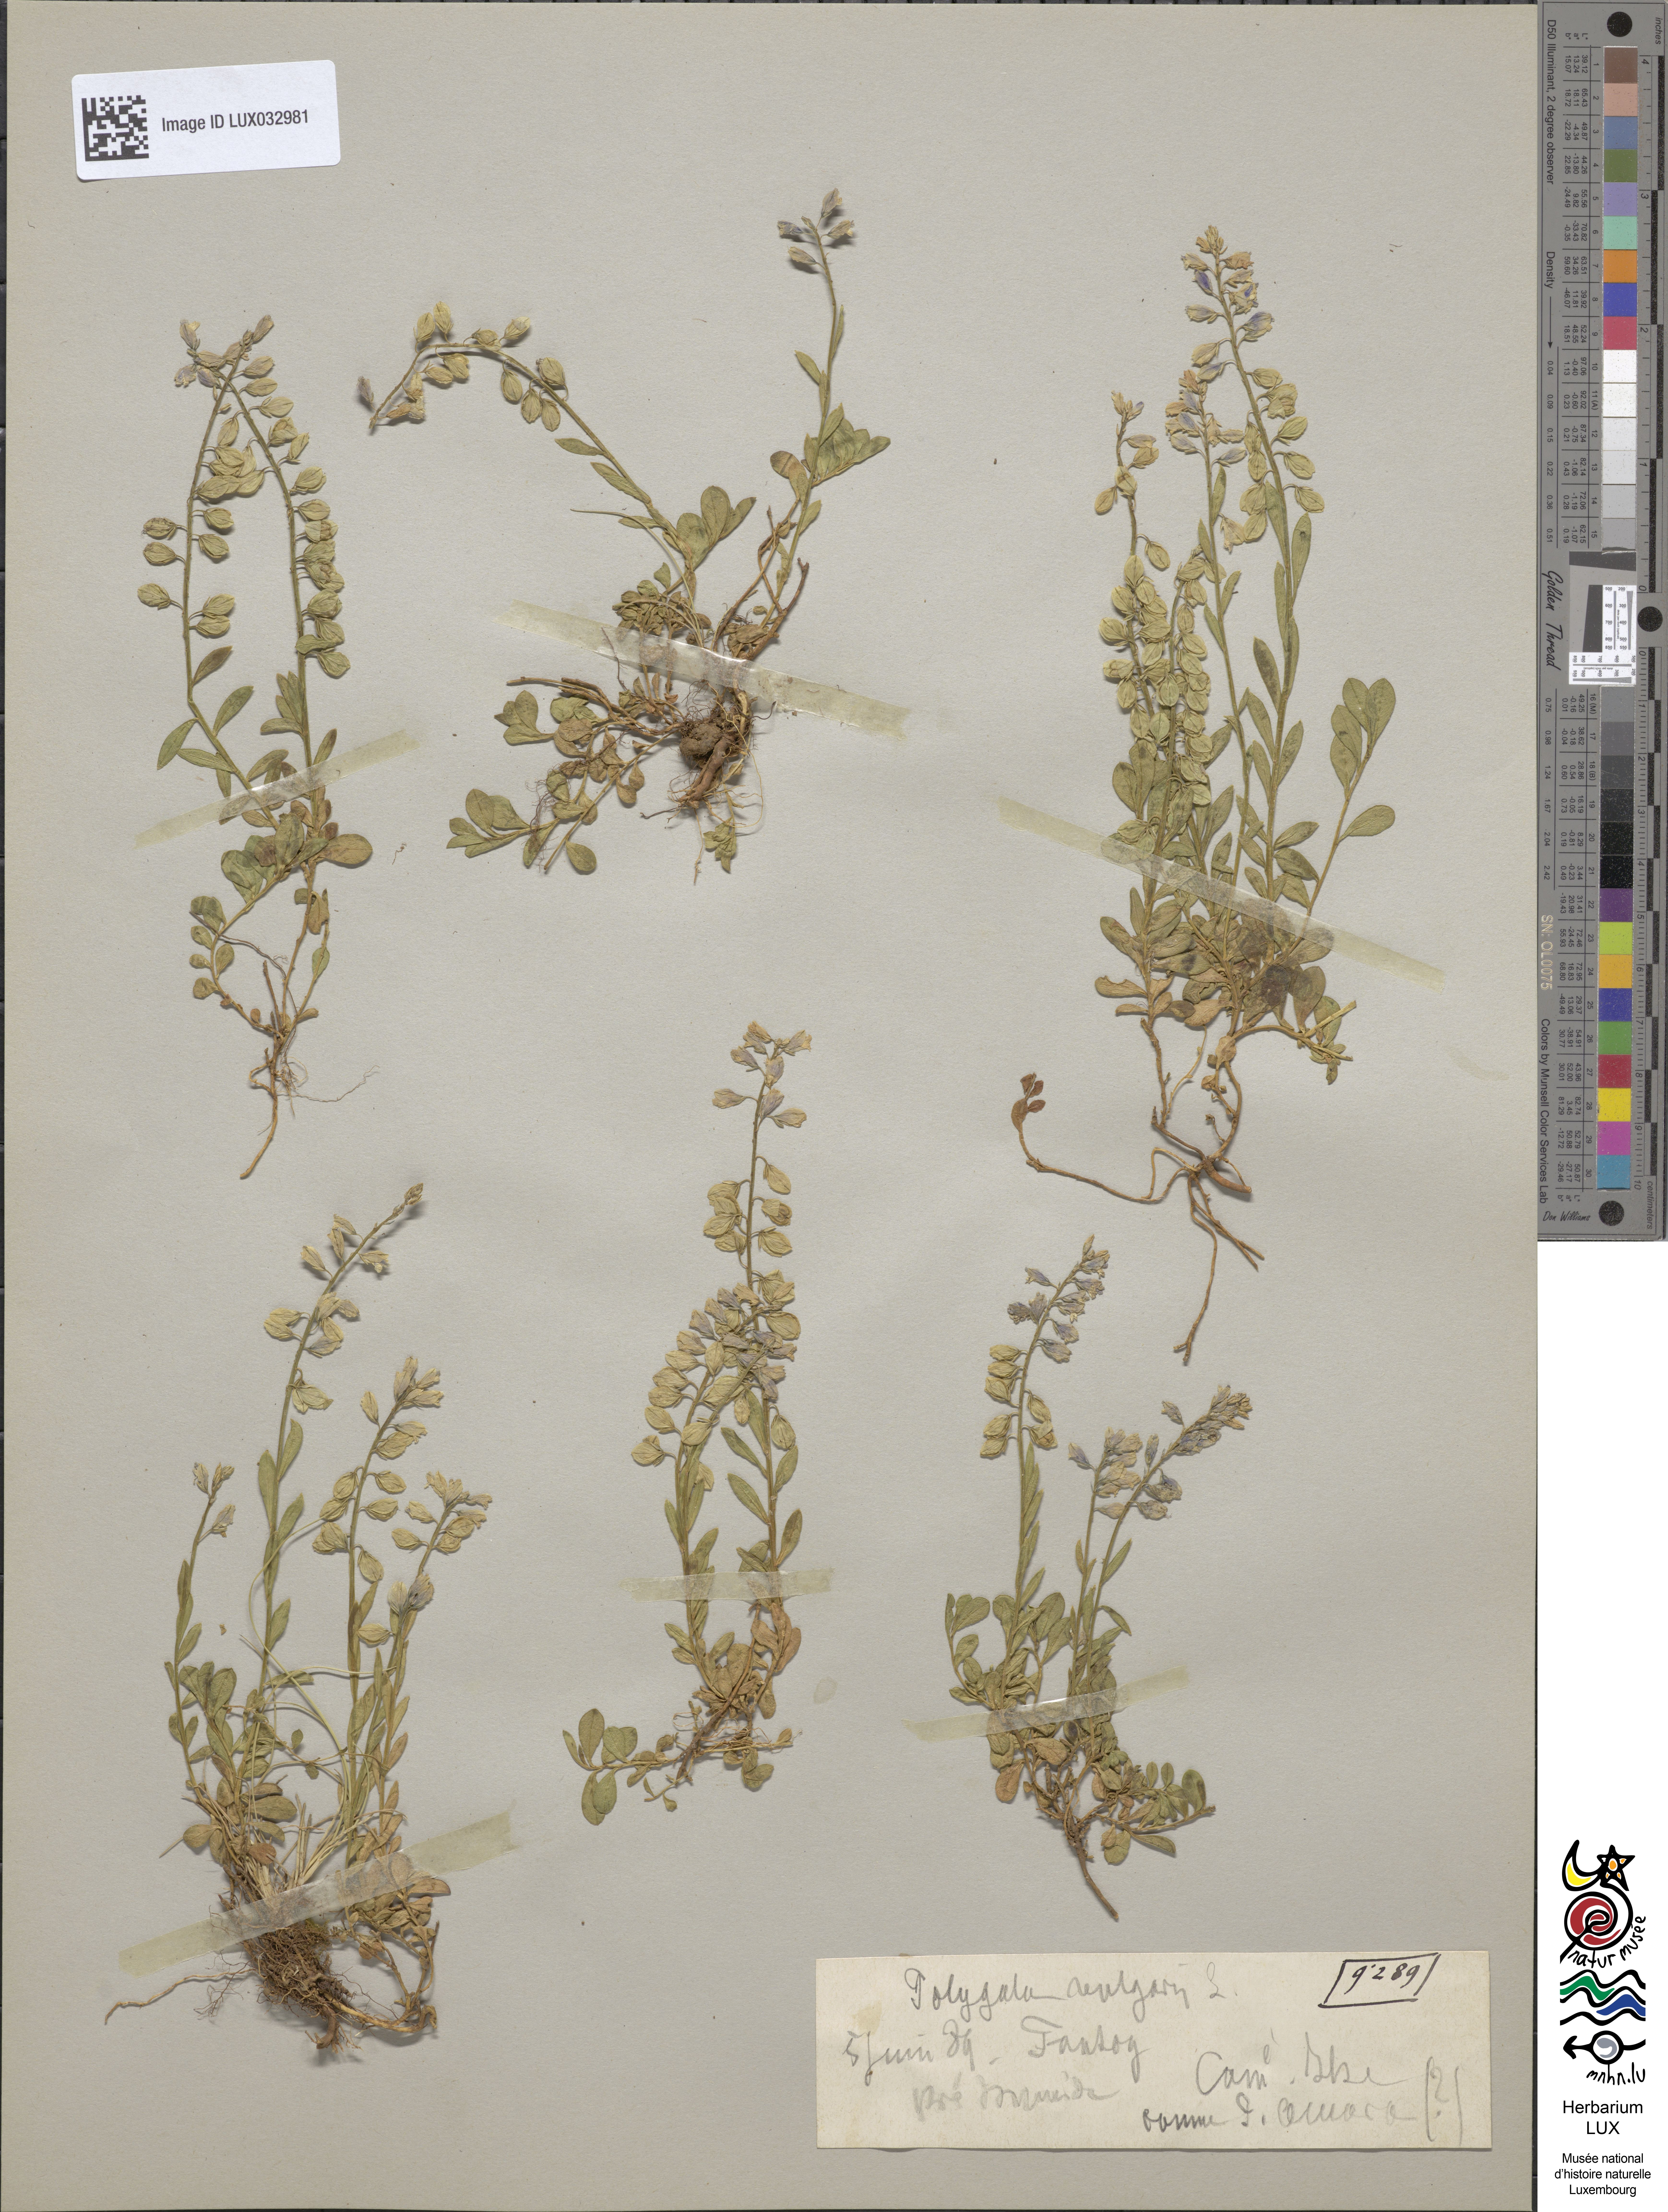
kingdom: Plantae
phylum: Tracheophyta
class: Magnoliopsida
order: Fabales
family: Polygalaceae
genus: Polygala
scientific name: Polygala vulgaris
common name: Common milkwort
